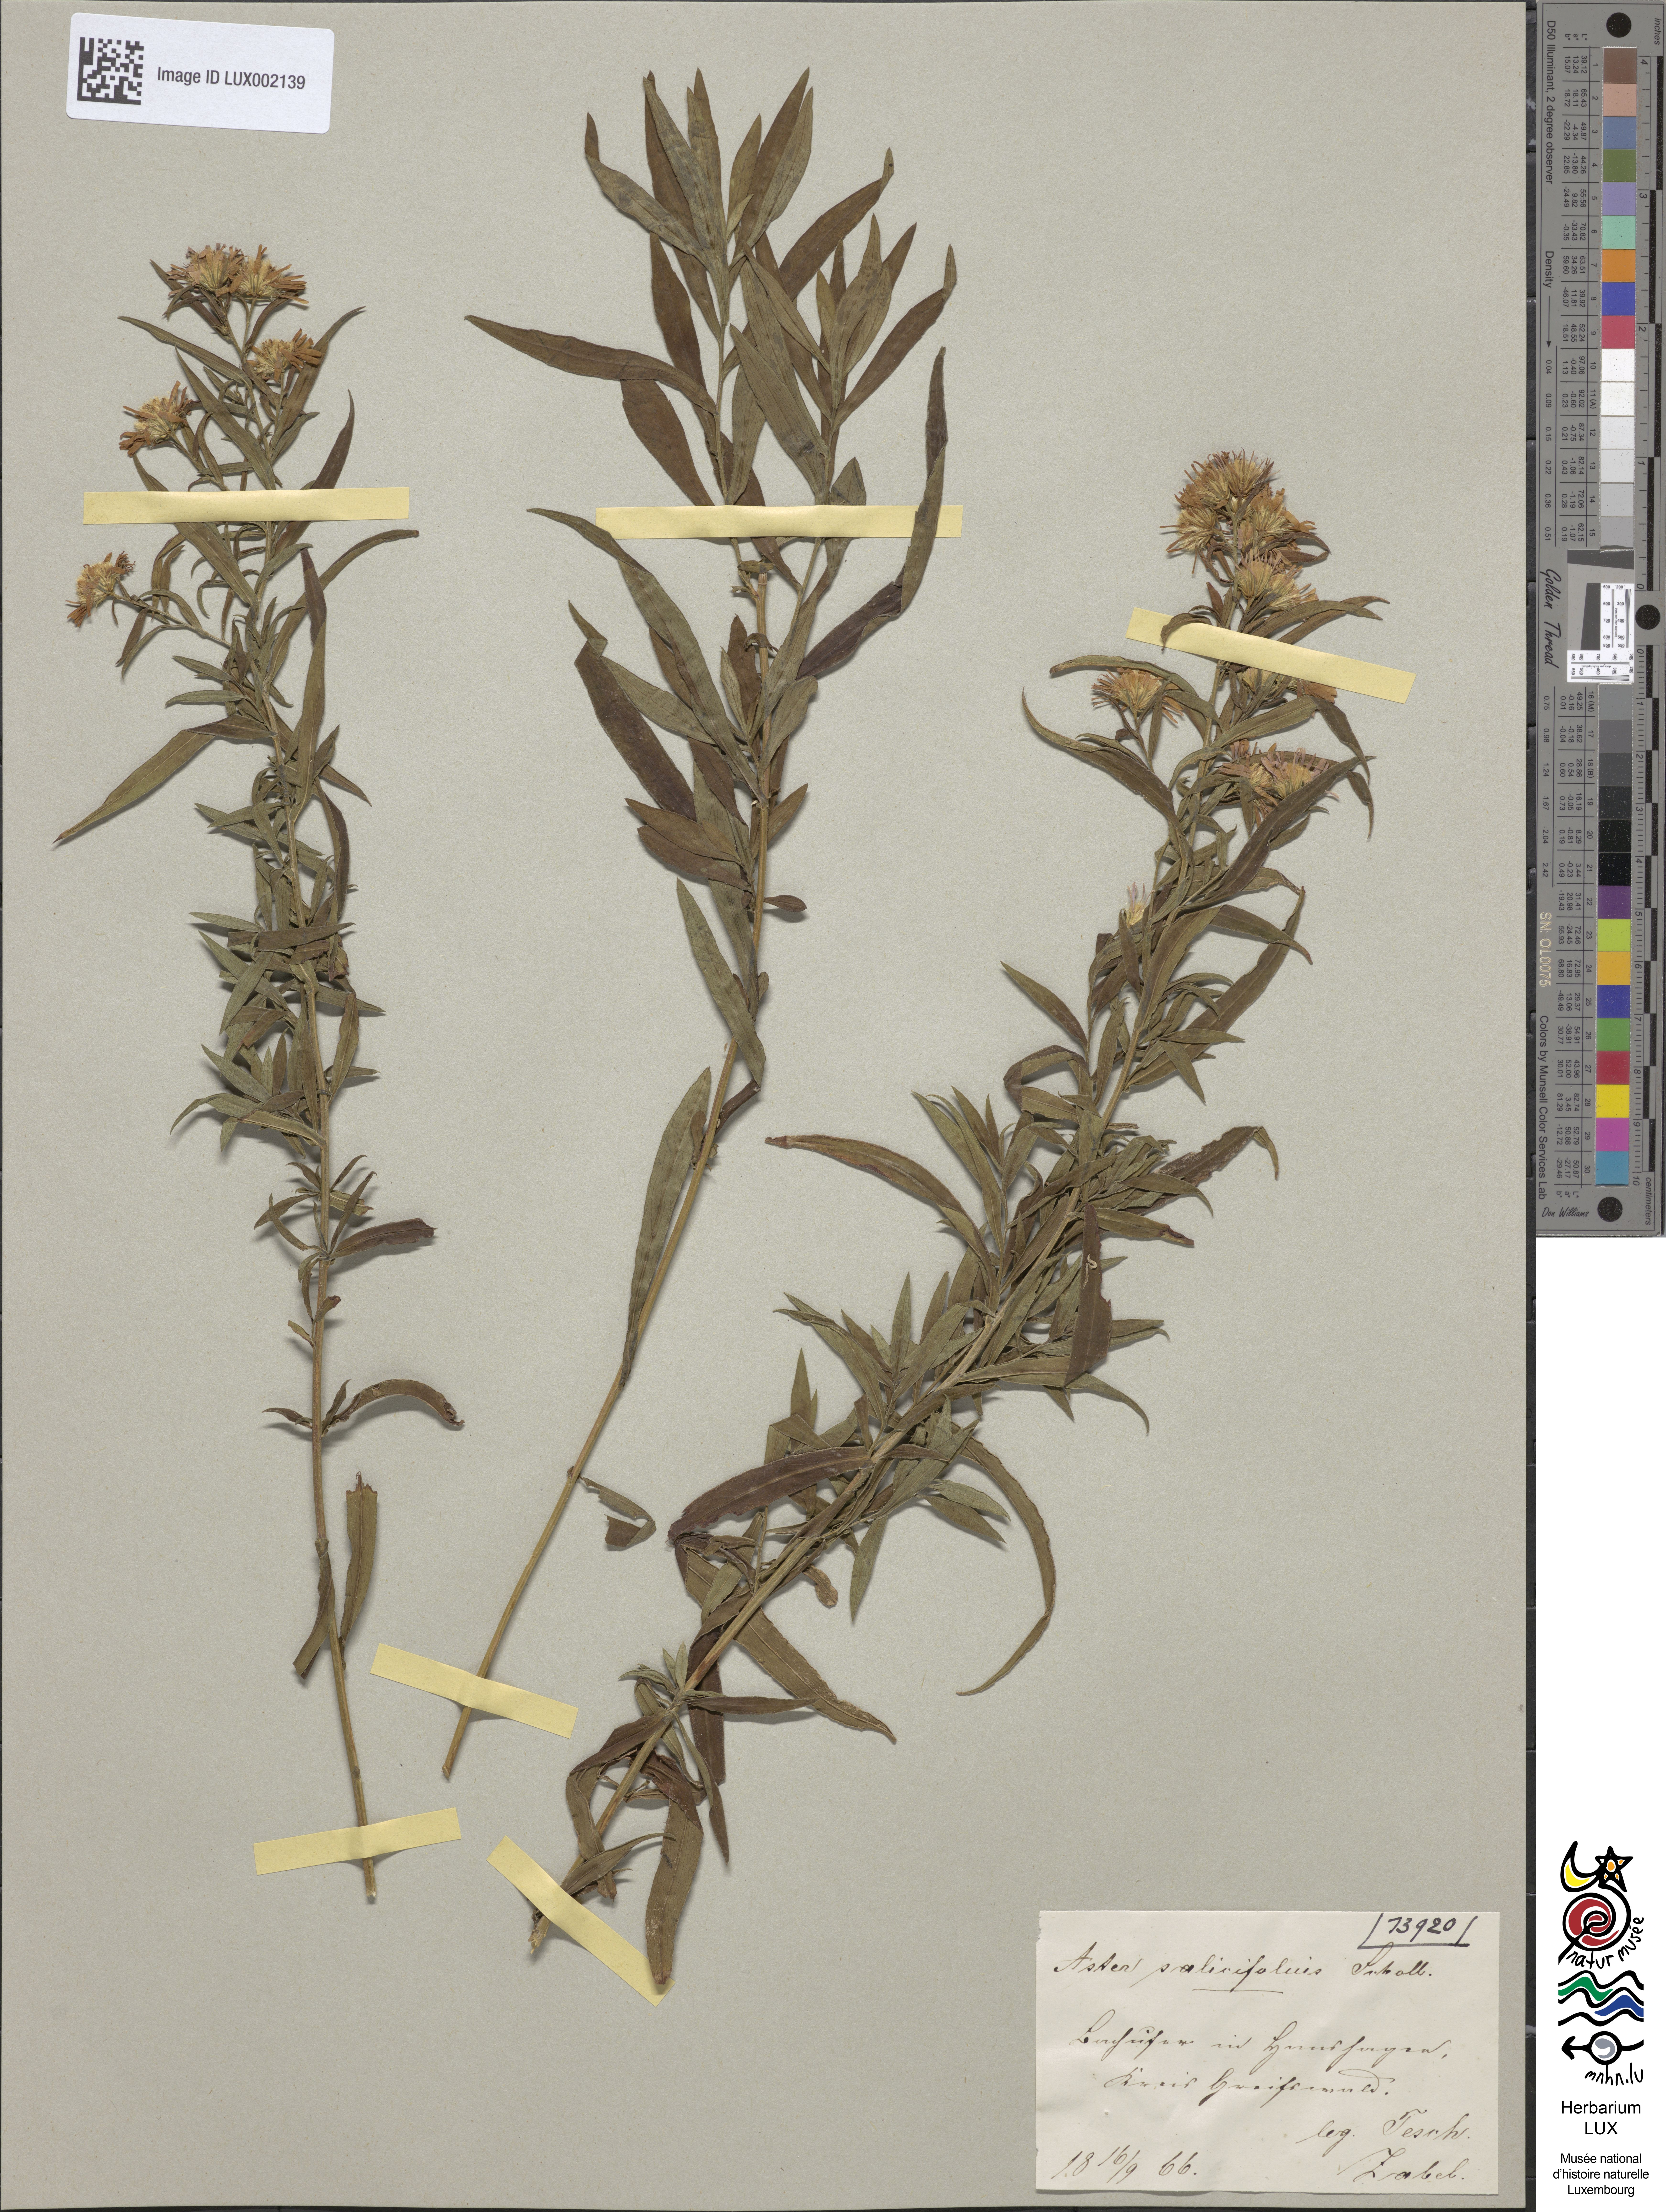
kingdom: Plantae
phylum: Tracheophyta
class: Magnoliopsida
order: Asterales
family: Asteraceae
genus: Symphyotrichum
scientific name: Symphyotrichum salignum
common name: Common michaelmas daisy
